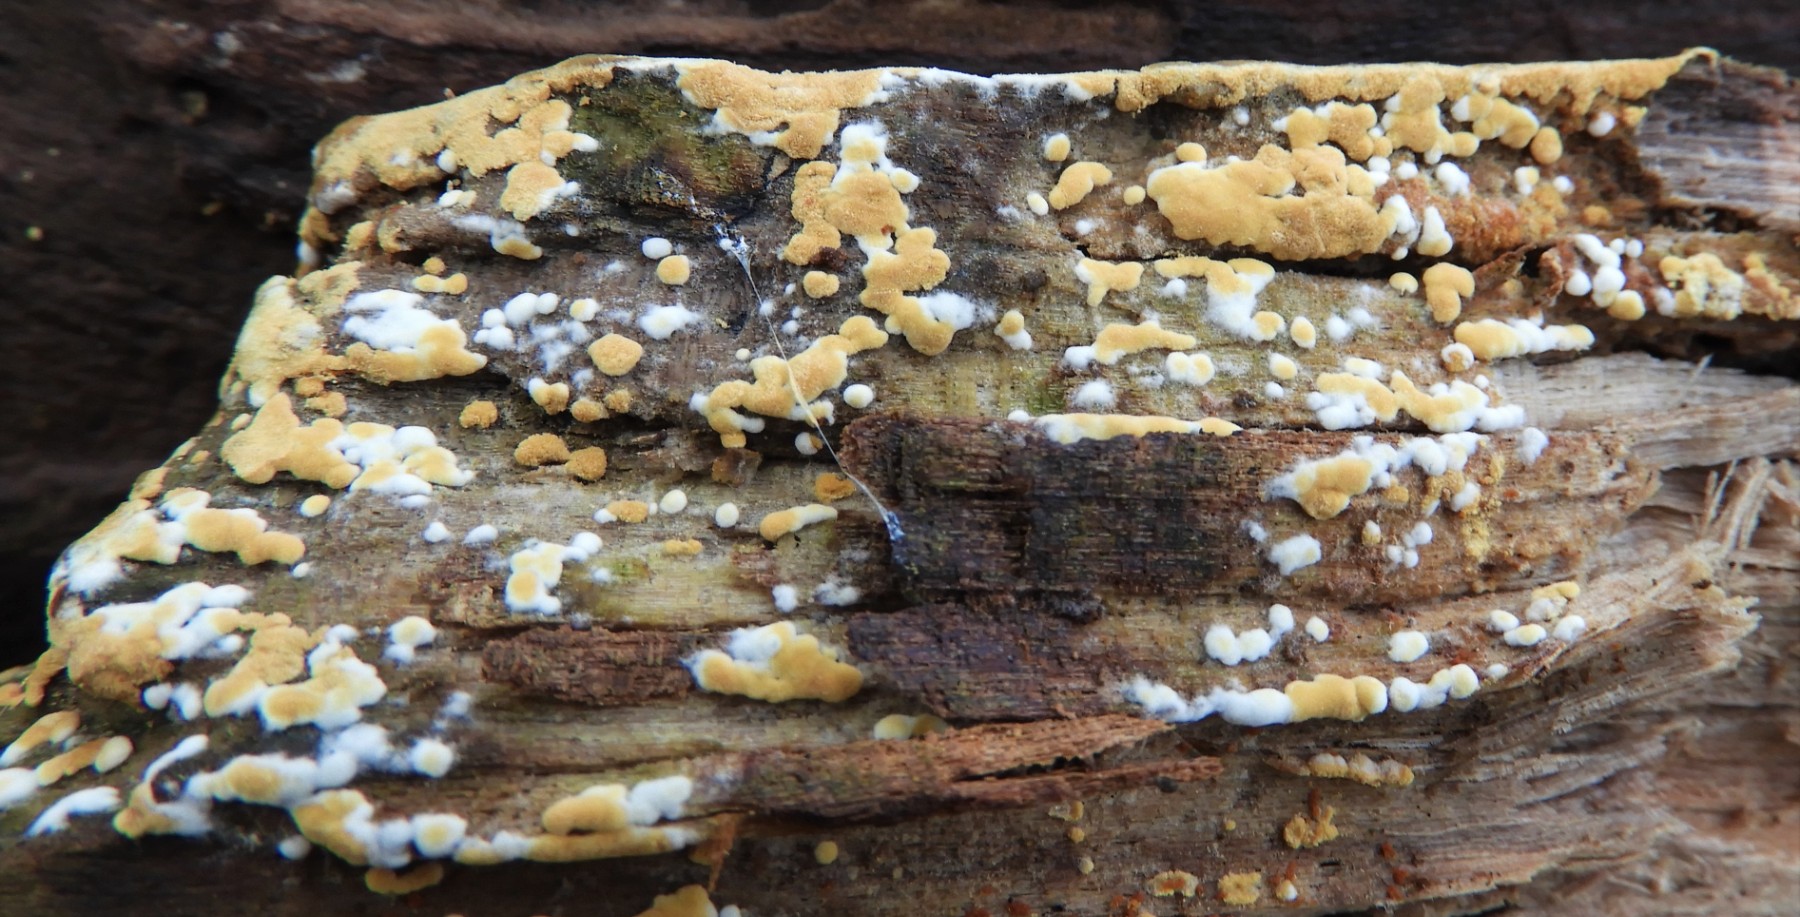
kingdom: Fungi
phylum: Basidiomycota
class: Agaricomycetes
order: Cantharellales
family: Botryobasidiaceae
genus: Botryobasidium
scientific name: Botryobasidium aureum
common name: gylden spindhinde
